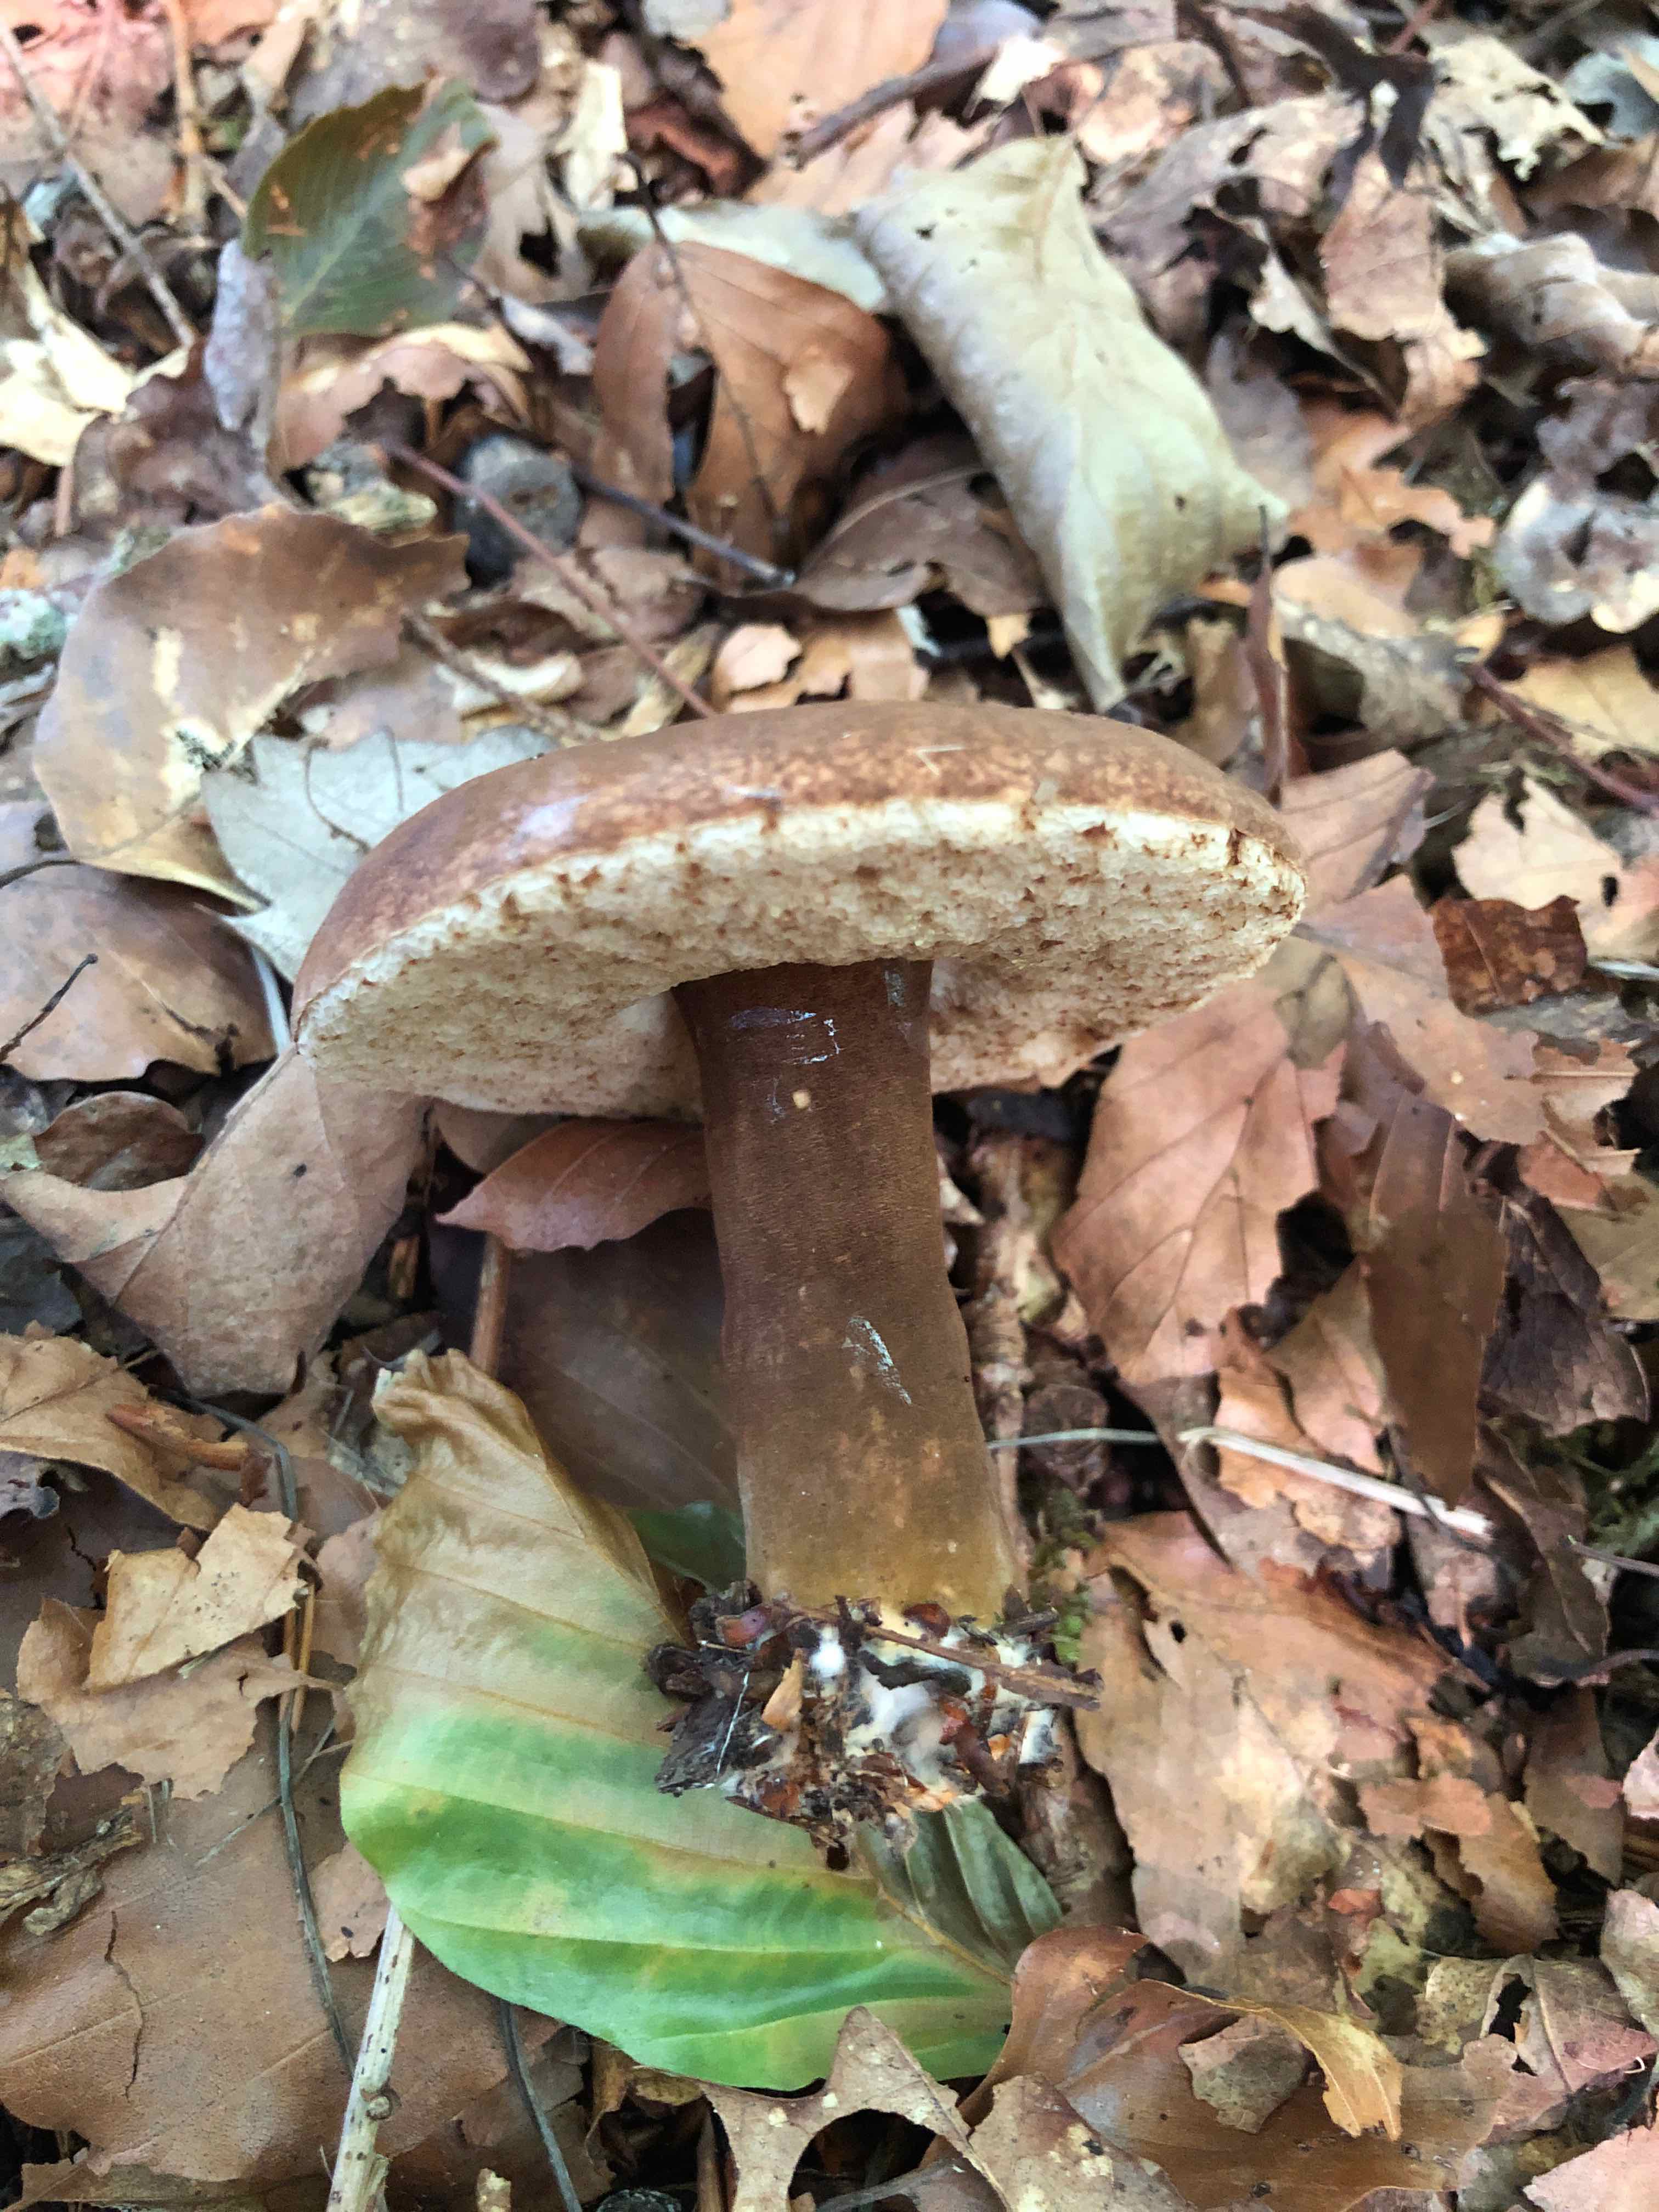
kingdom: Fungi
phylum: Basidiomycota
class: Agaricomycetes
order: Boletales
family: Boletaceae
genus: Porphyrellus
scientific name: Porphyrellus porphyrosporus
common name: sodrørhat
